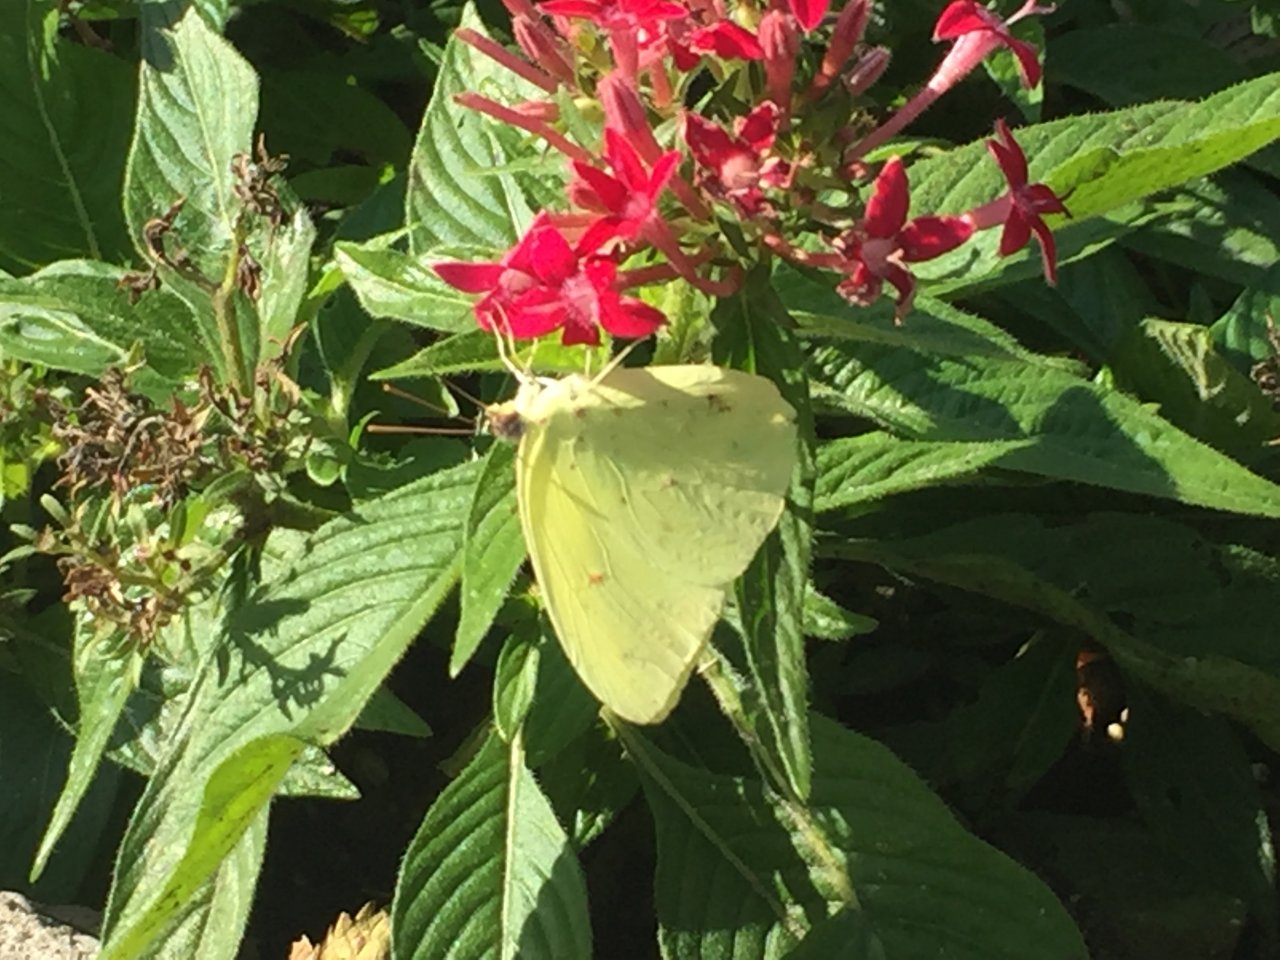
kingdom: Animalia
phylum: Arthropoda
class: Insecta
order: Lepidoptera
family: Pieridae
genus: Phoebis
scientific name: Phoebis sennae
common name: Cloudless Sulphur
